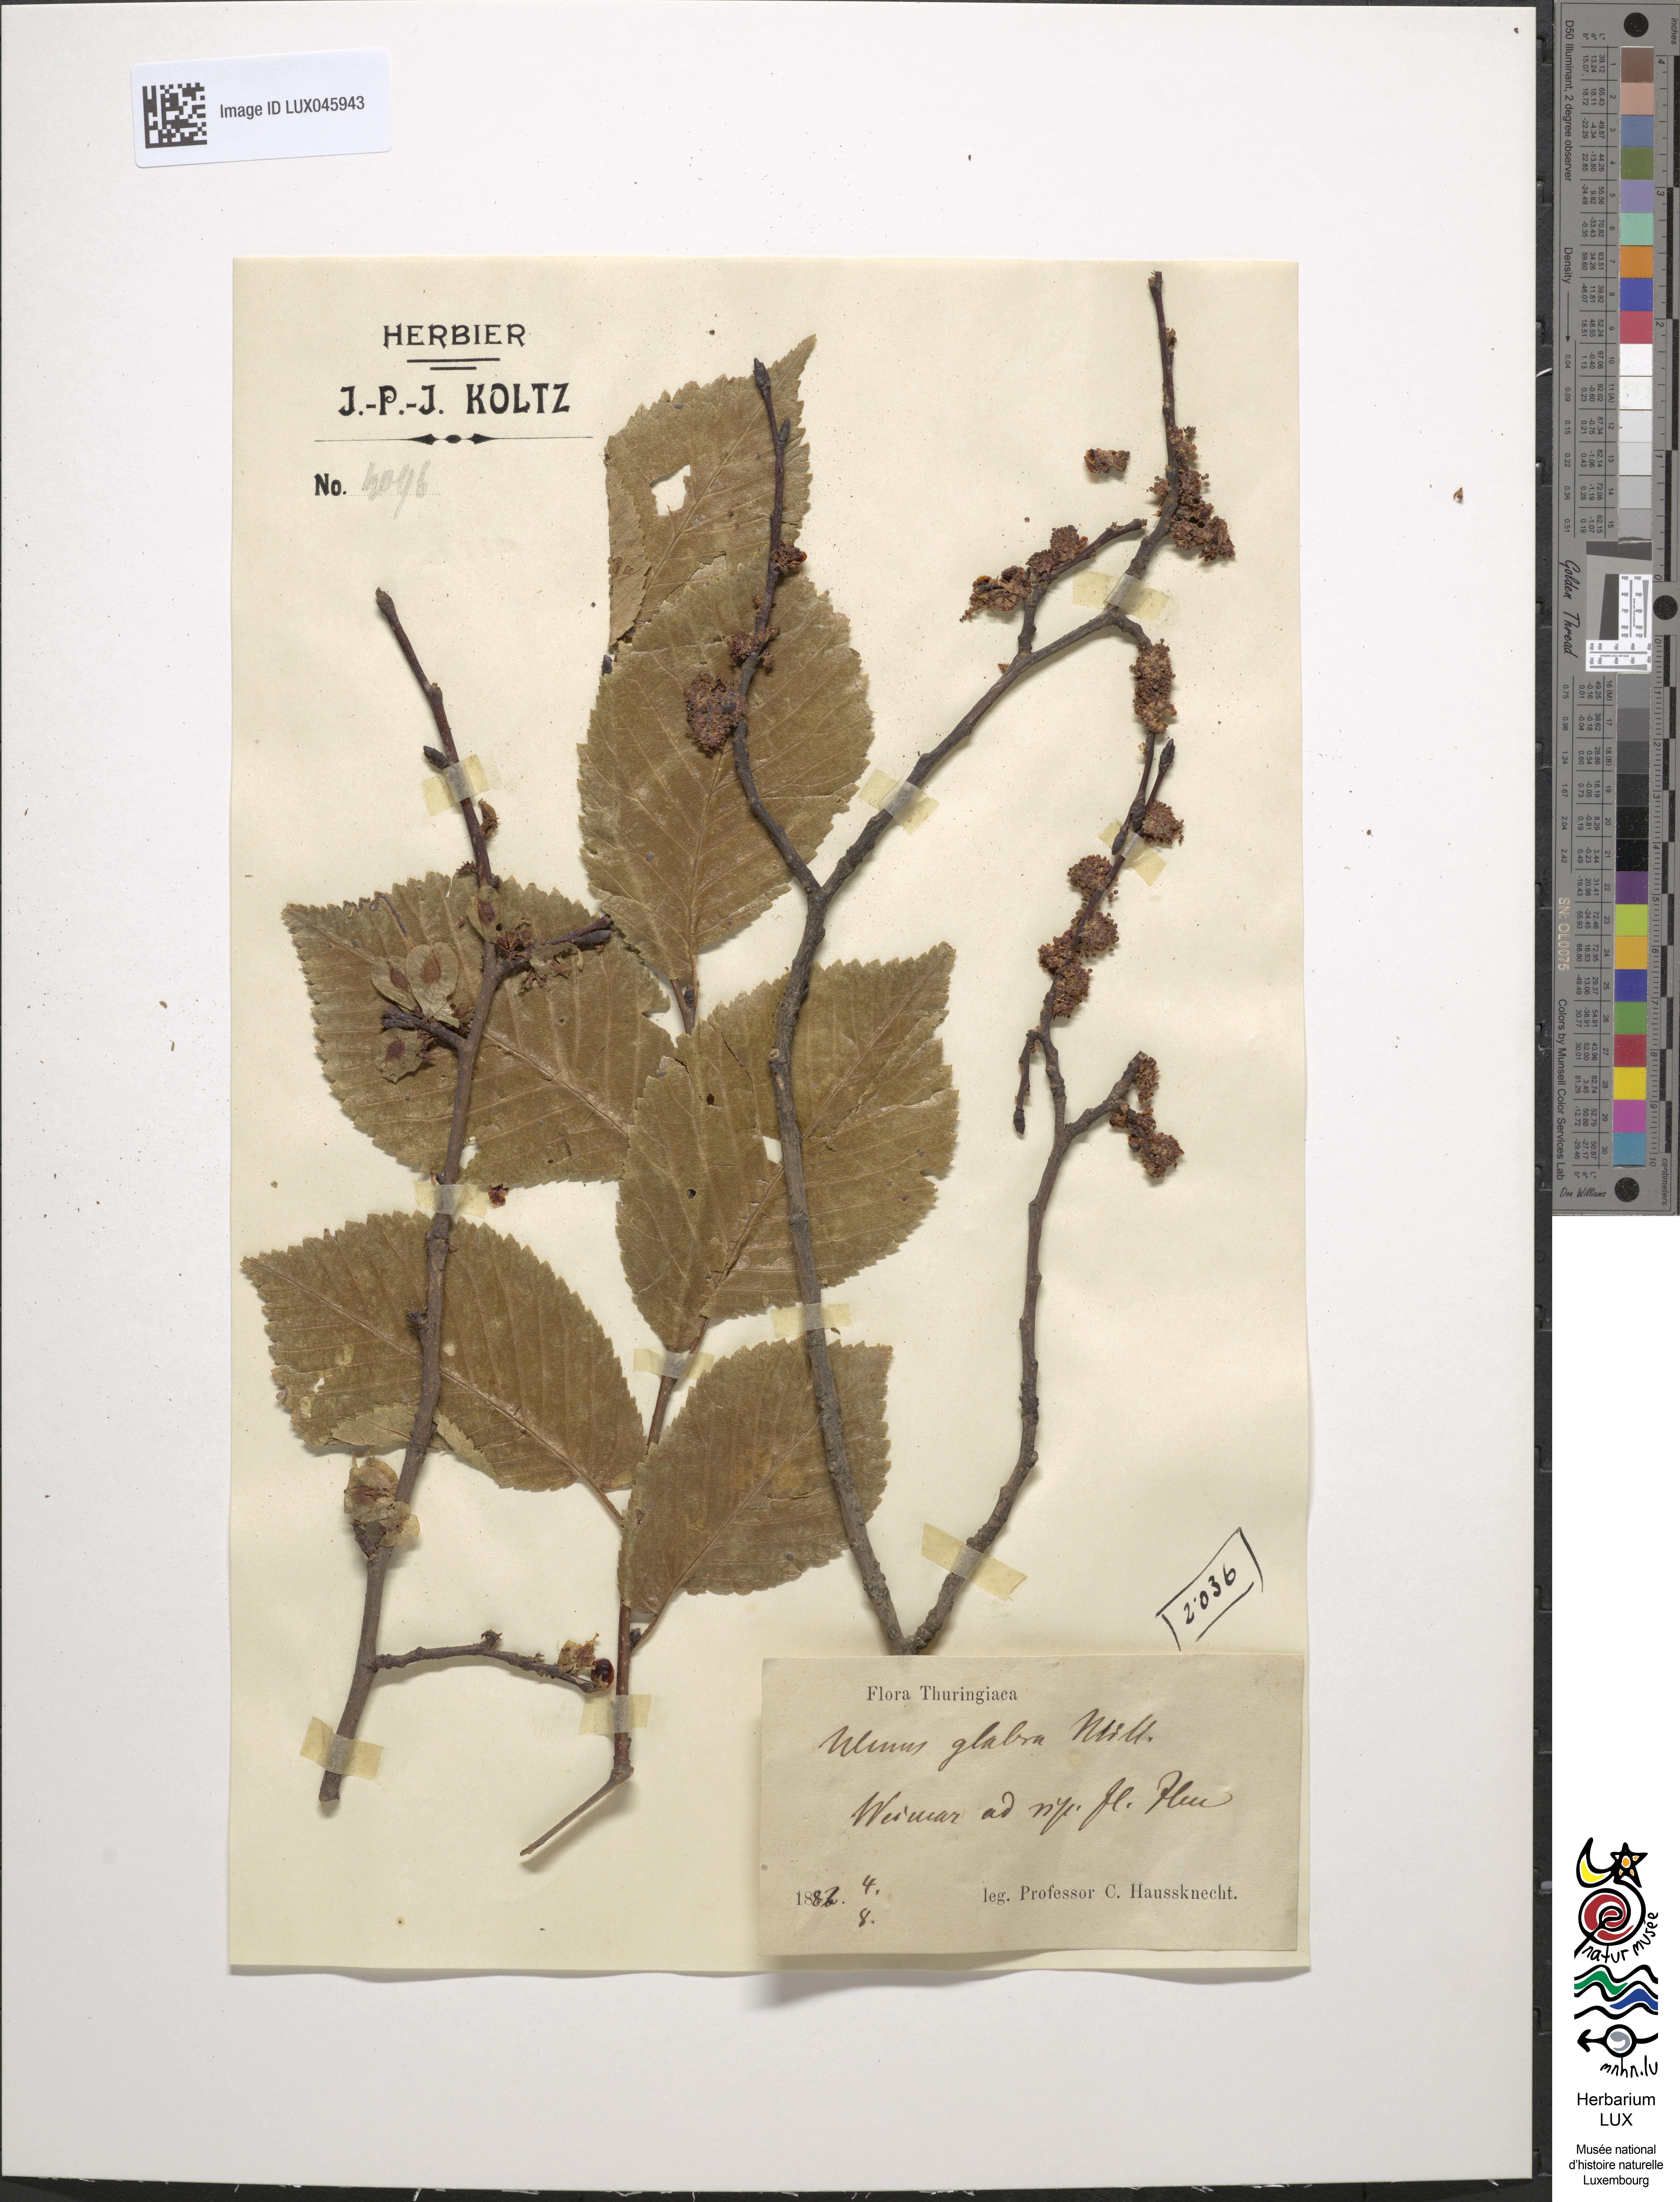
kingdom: Plantae
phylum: Tracheophyta
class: Magnoliopsida
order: Rosales
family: Ulmaceae
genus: Ulmus
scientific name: Ulmus glabra
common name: Wych elm
